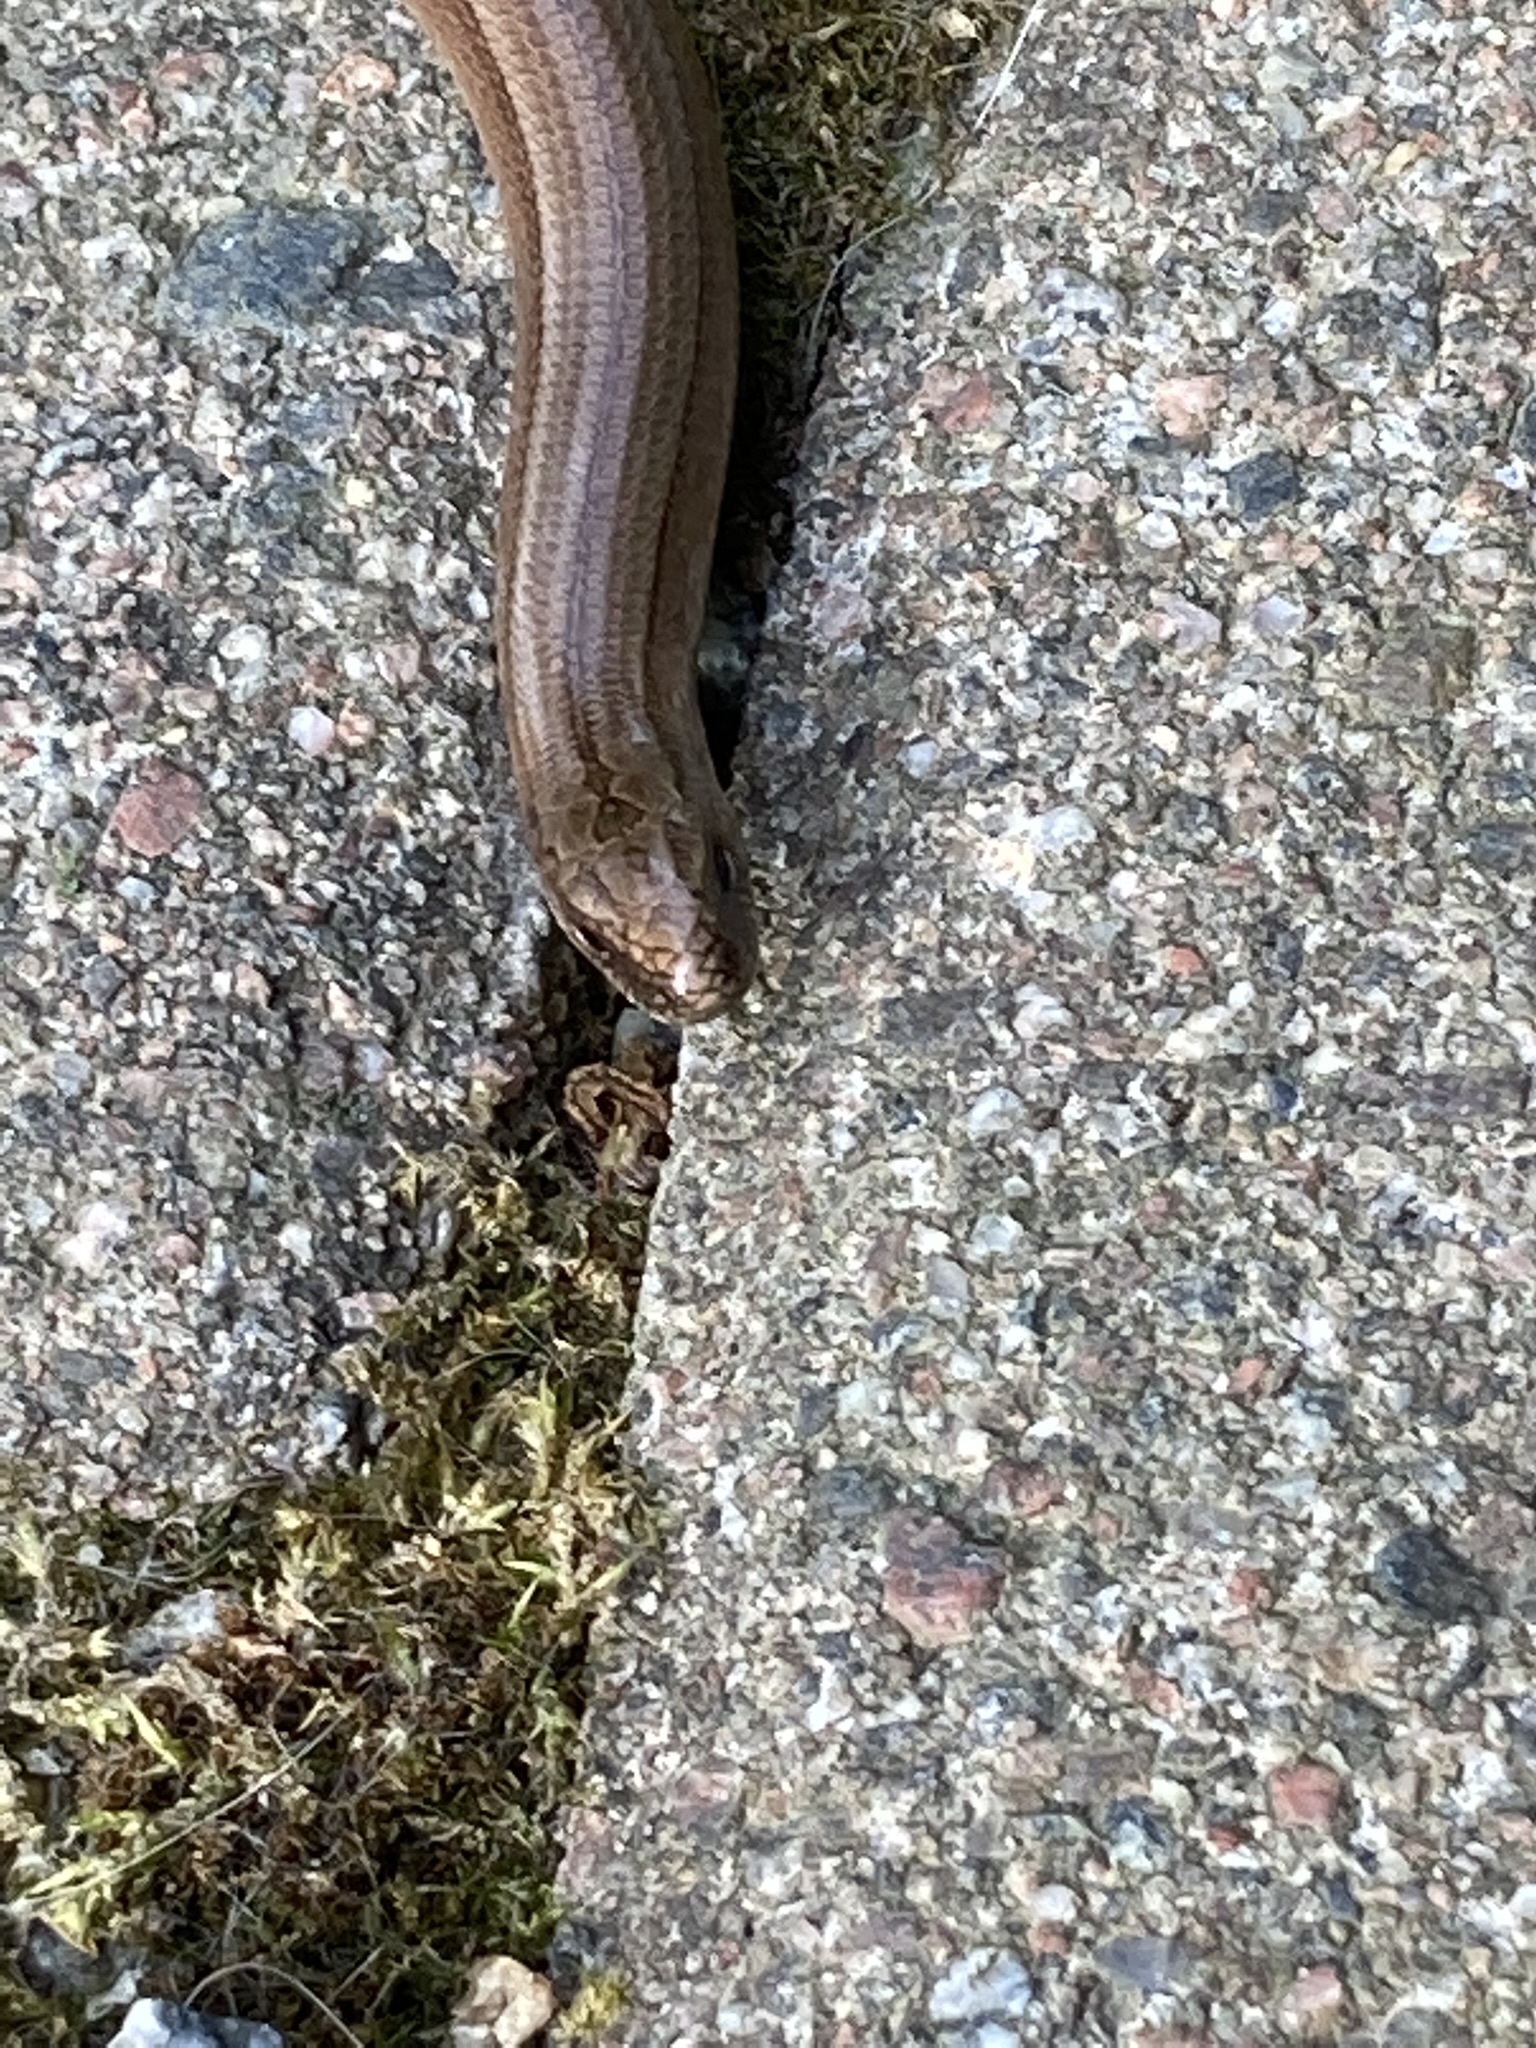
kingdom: Animalia
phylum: Chordata
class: Squamata
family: Anguidae
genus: Anguis
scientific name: Anguis colchica
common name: Slow worm
